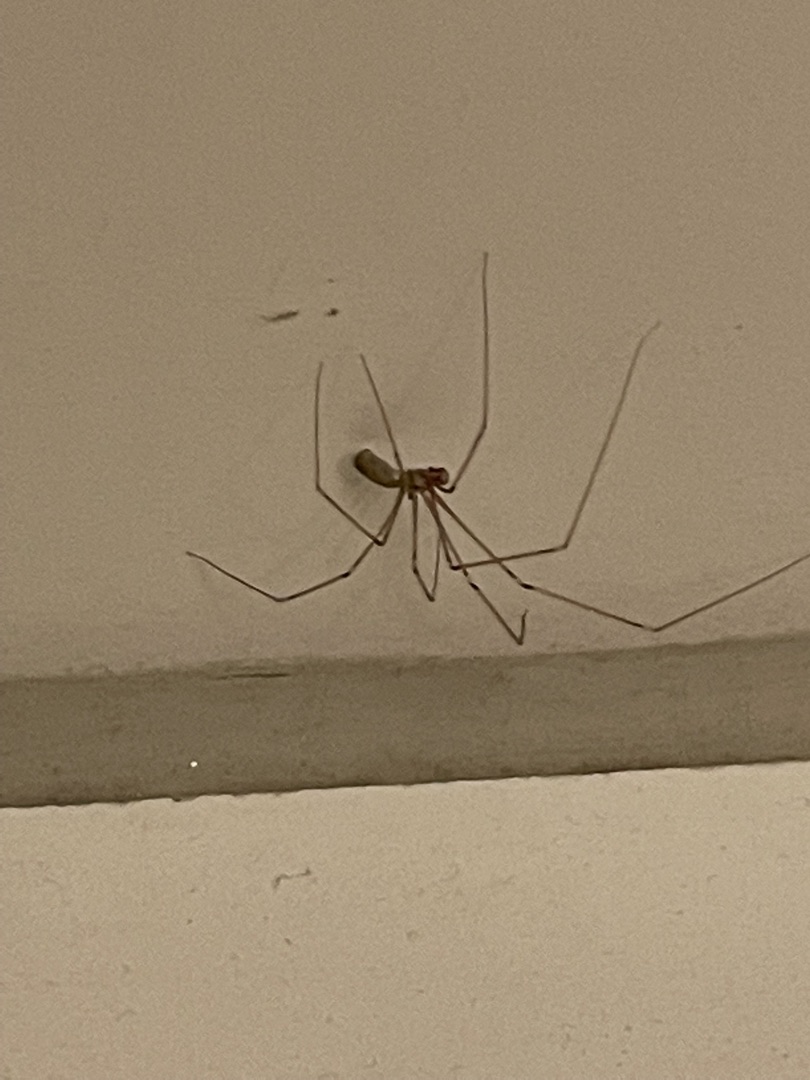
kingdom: Animalia
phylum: Arthropoda
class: Arachnida
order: Araneae
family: Pholcidae
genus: Pholcus
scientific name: Pholcus
